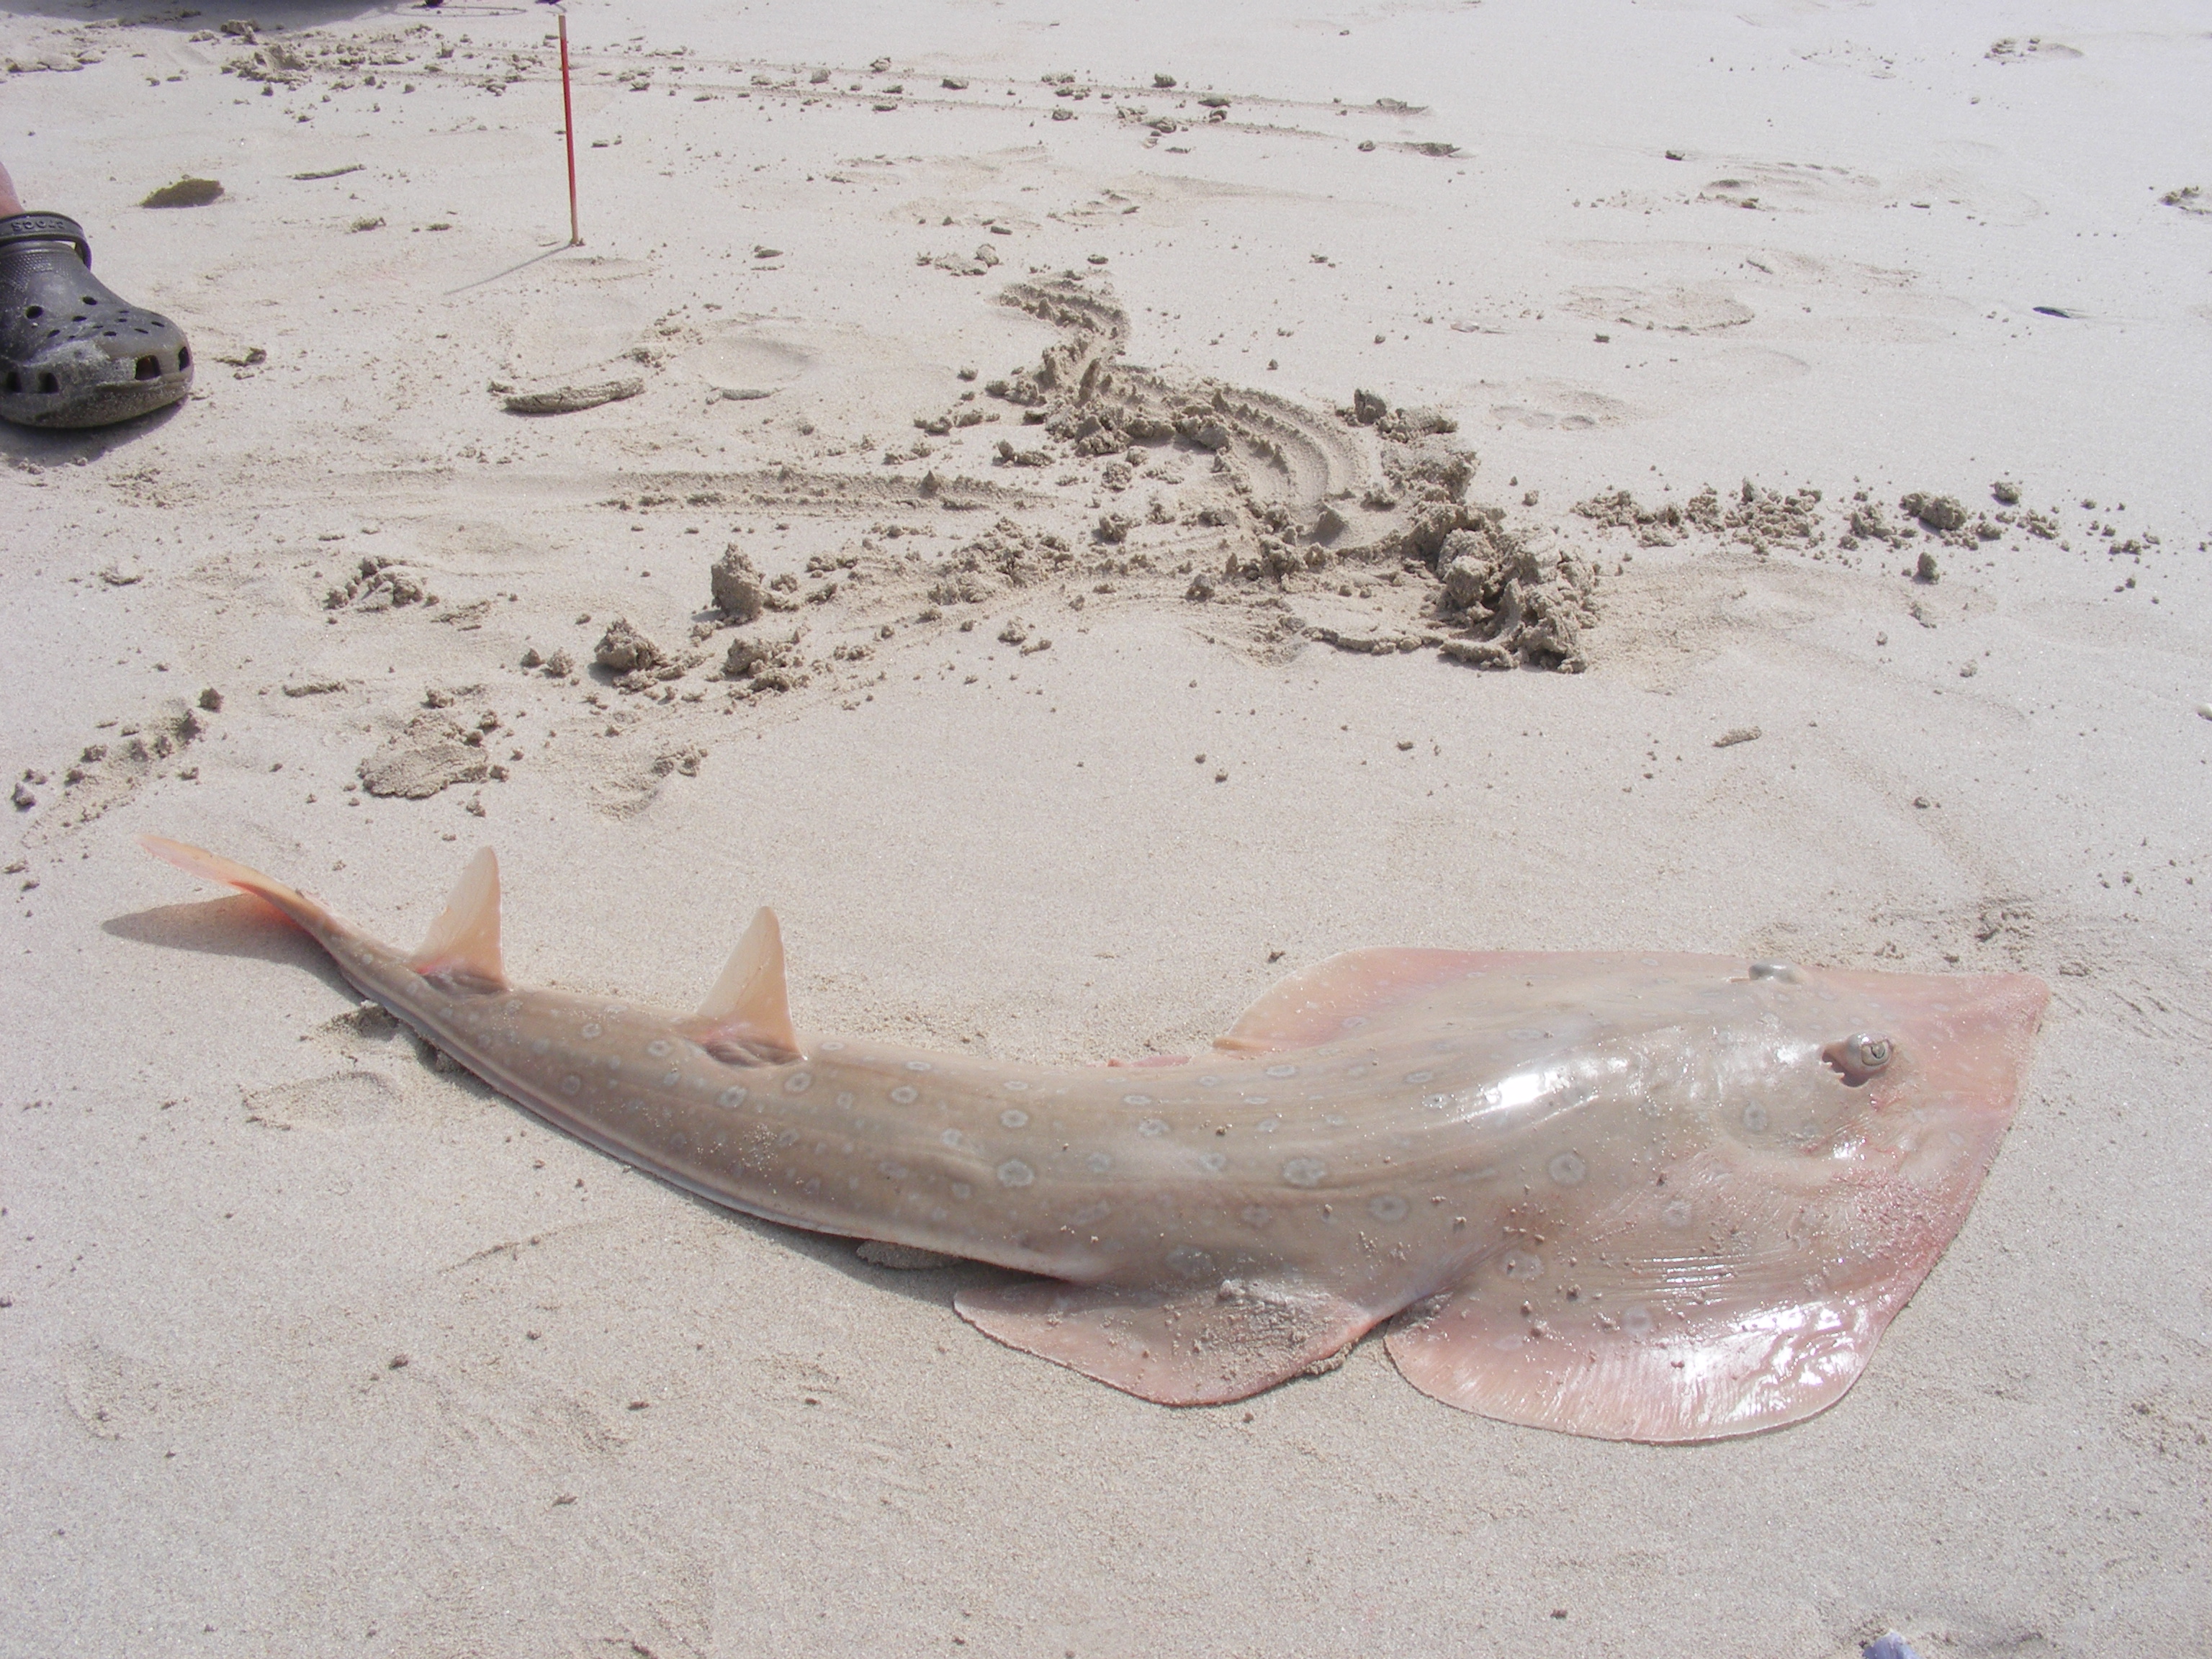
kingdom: Animalia
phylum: Chordata
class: Elasmobranchii
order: Rhinopristiformes
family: Rhinobatidae
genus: Acroteriobatus
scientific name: Acroteriobatus annulatus
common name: Lesser guitarfish
